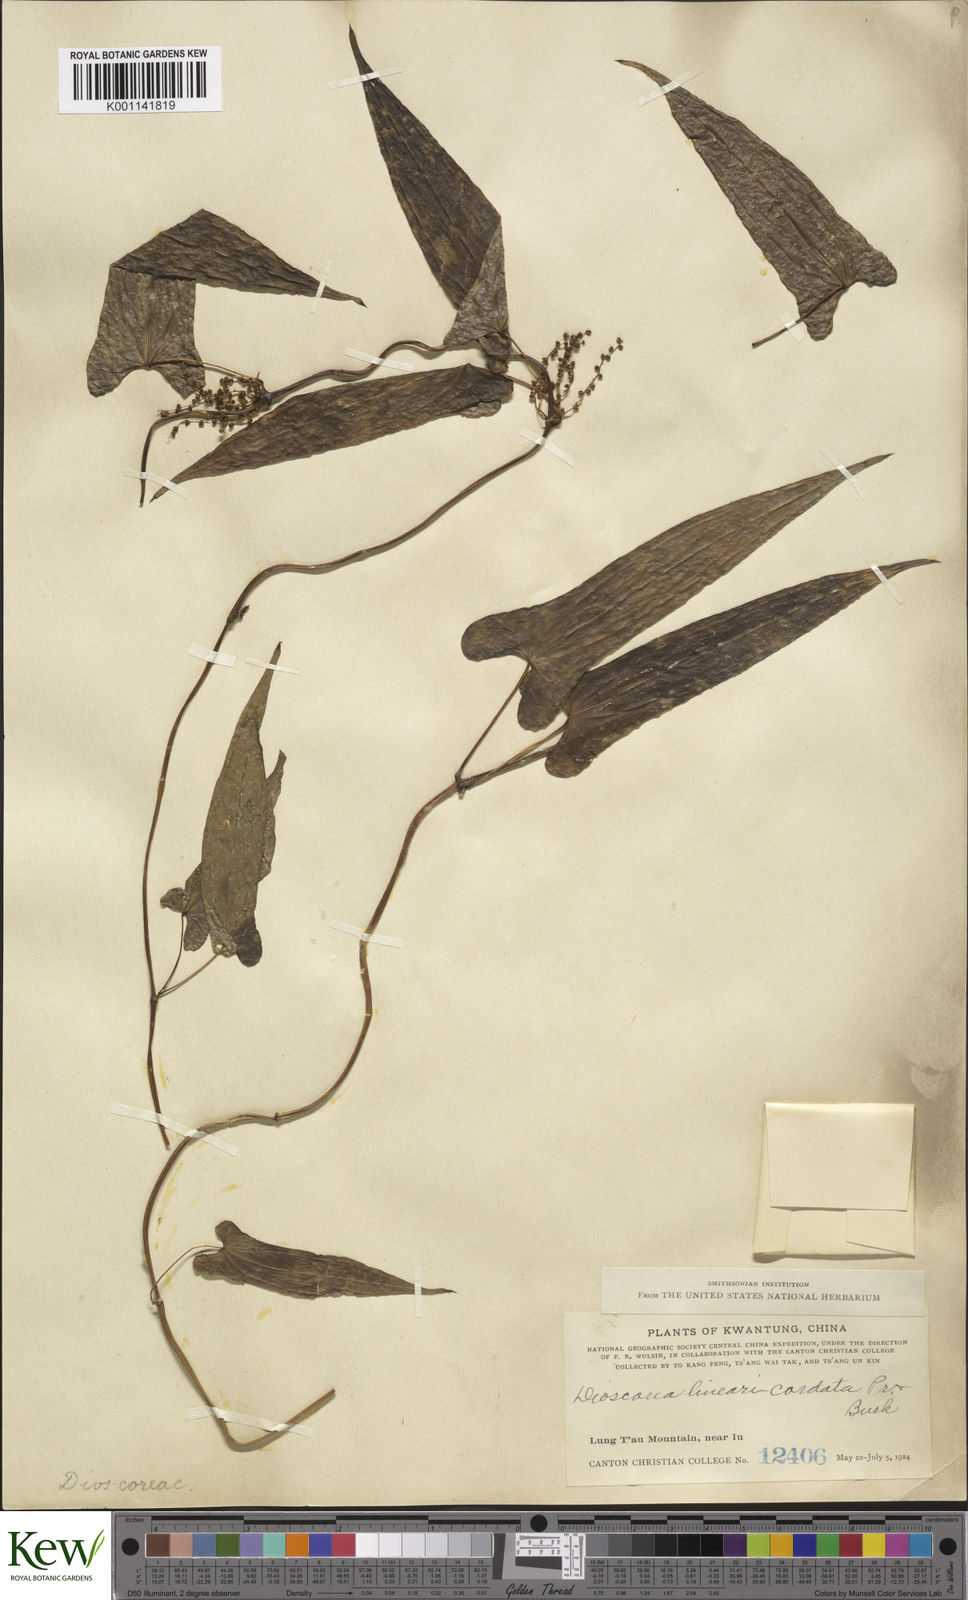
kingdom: Plantae
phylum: Tracheophyta
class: Liliopsida
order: Dioscoreales
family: Dioscoreaceae
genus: Dioscorea
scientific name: Dioscorea linearicordata
